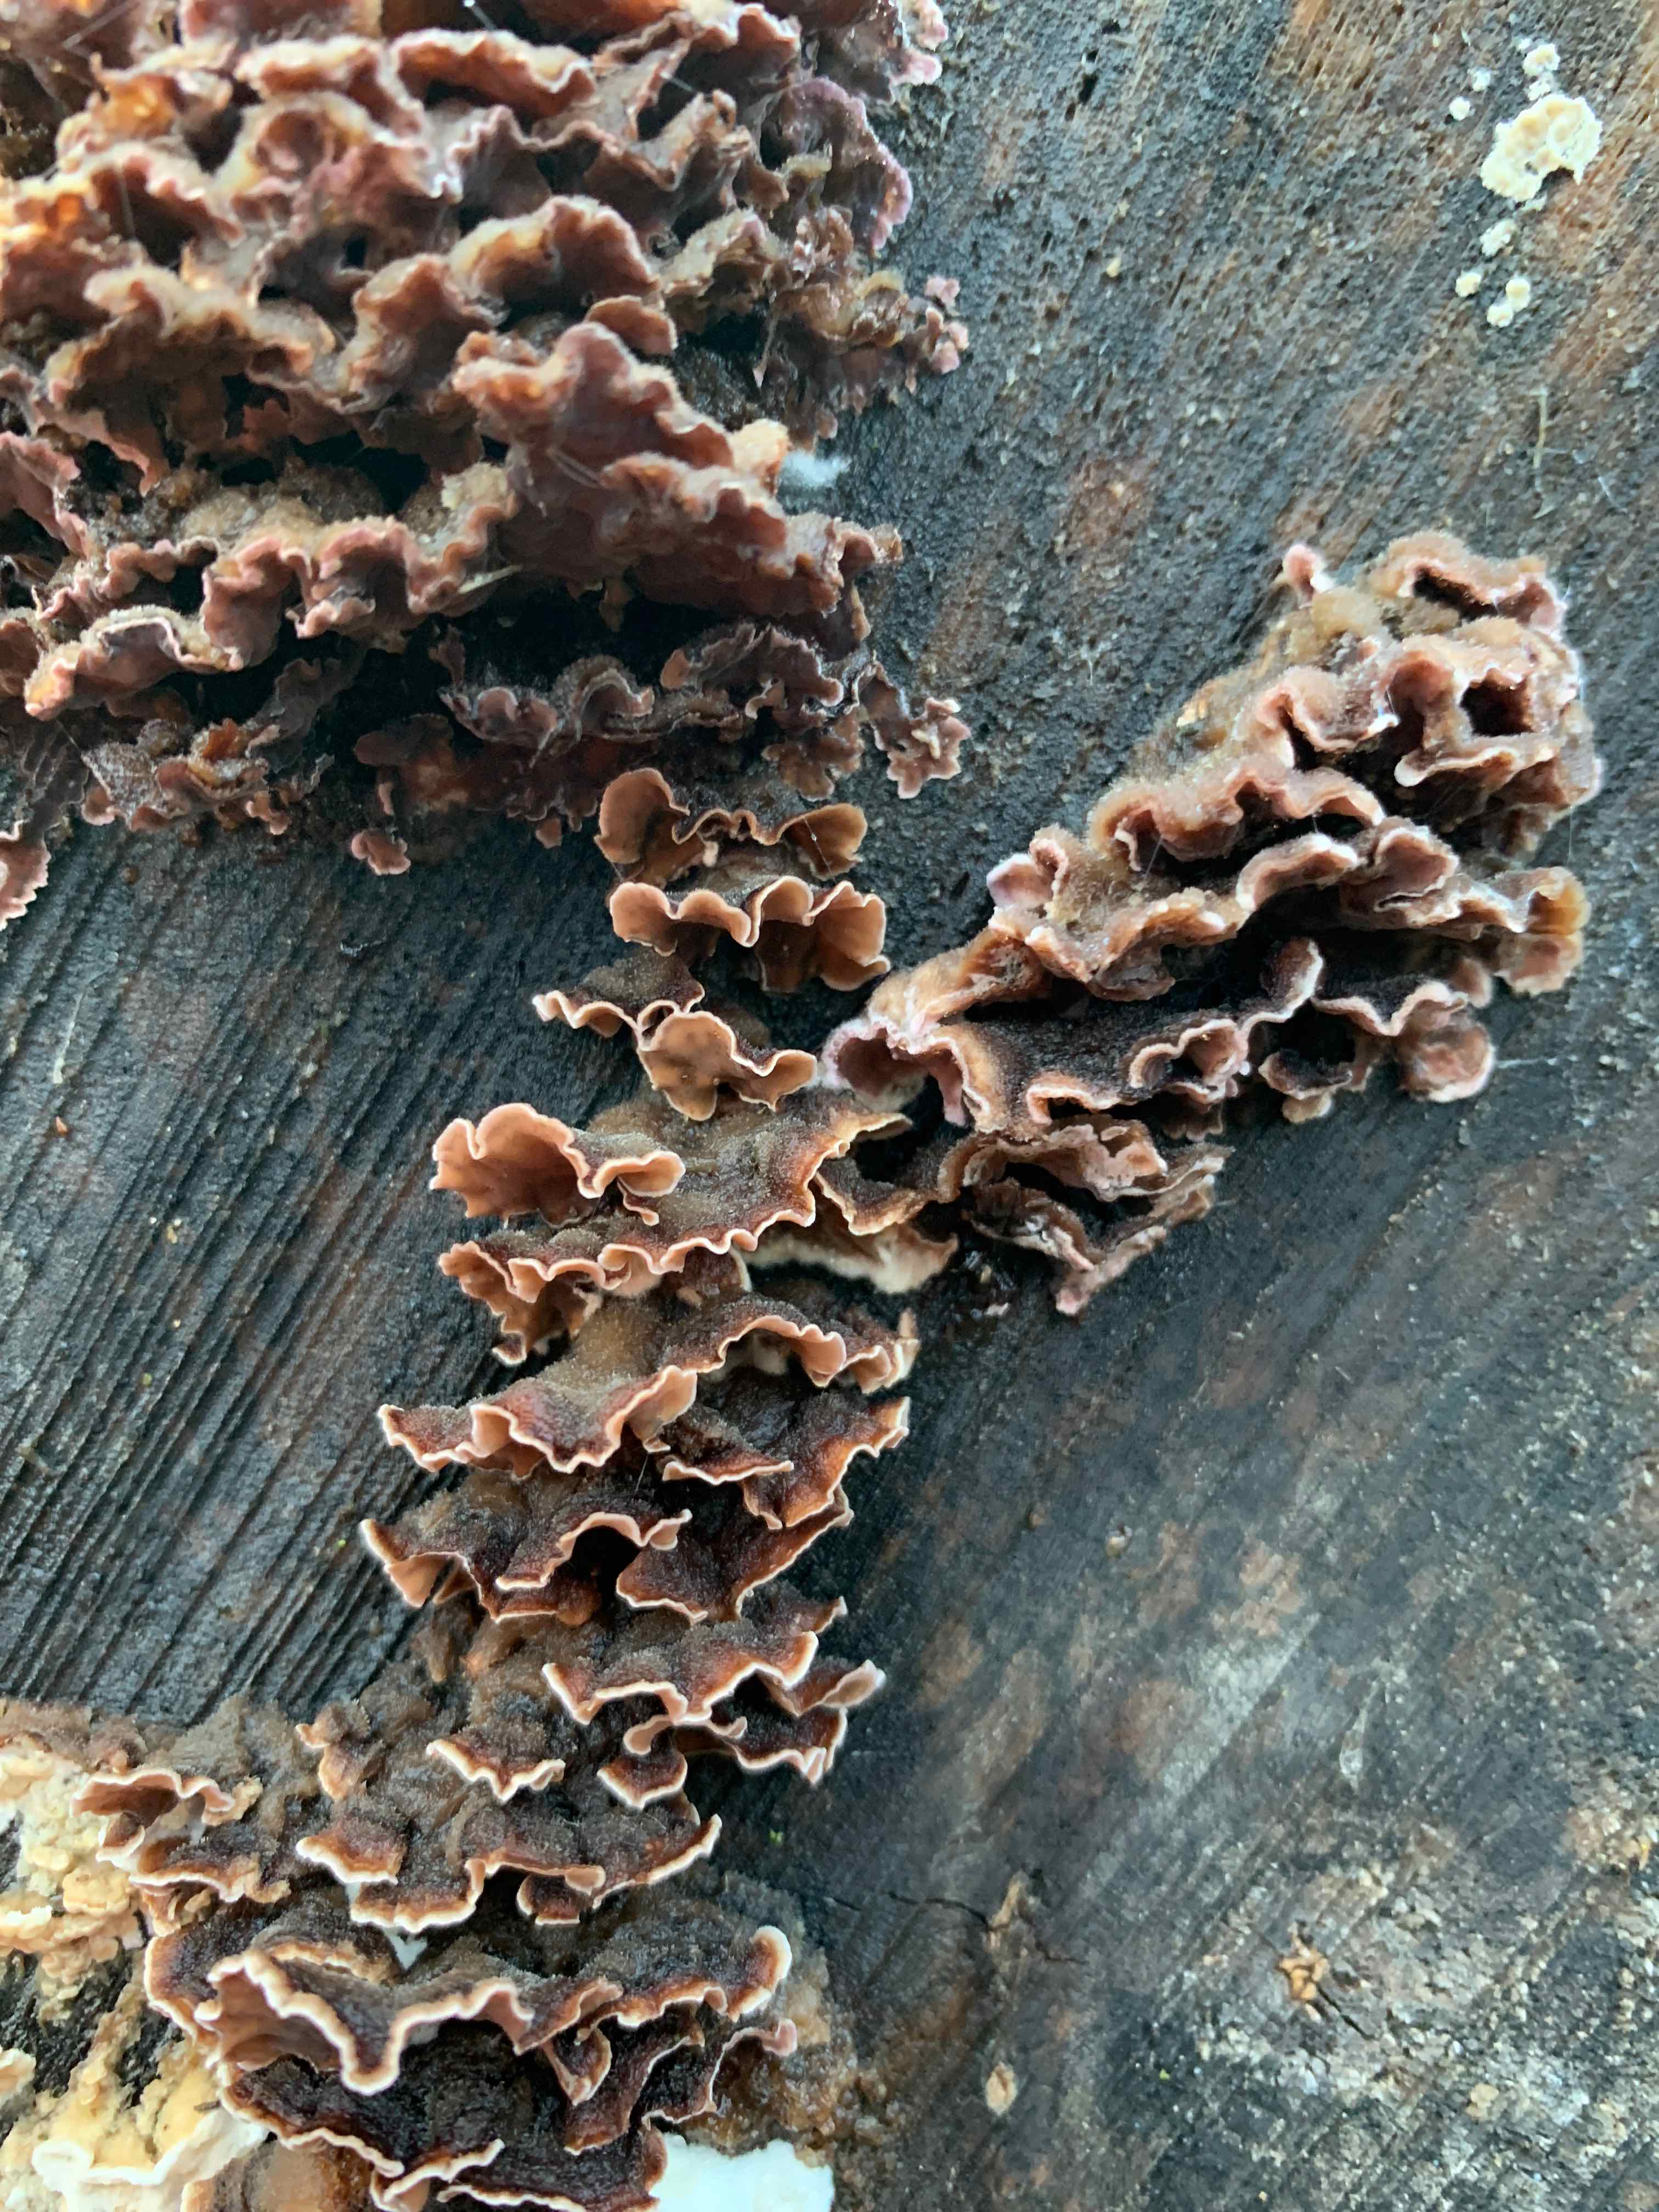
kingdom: Fungi
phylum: Basidiomycota
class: Agaricomycetes
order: Agaricales
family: Cyphellaceae
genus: Chondrostereum
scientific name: Chondrostereum purpureum
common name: purpurlædersvamp
